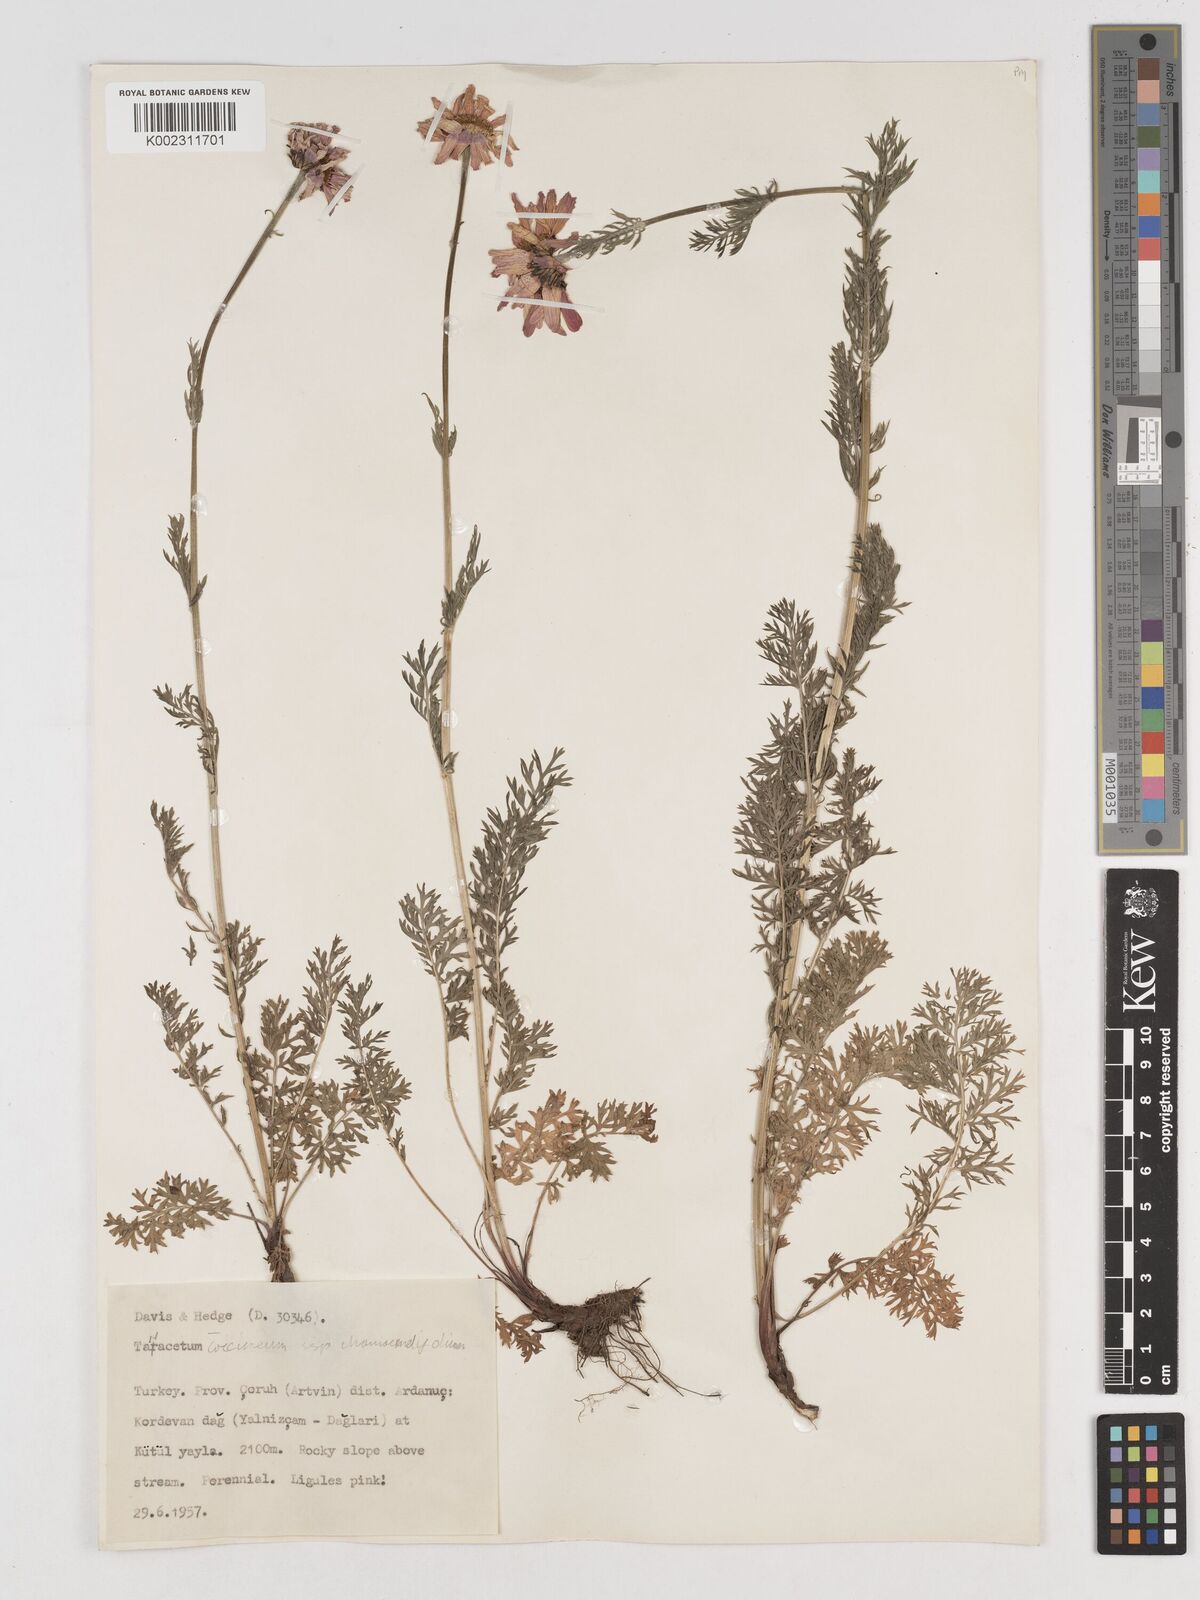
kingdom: Plantae
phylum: Tracheophyta
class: Magnoliopsida
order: Asterales
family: Asteraceae
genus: Tanacetum
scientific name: Tanacetum coccineum
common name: Pyrethum daisy
